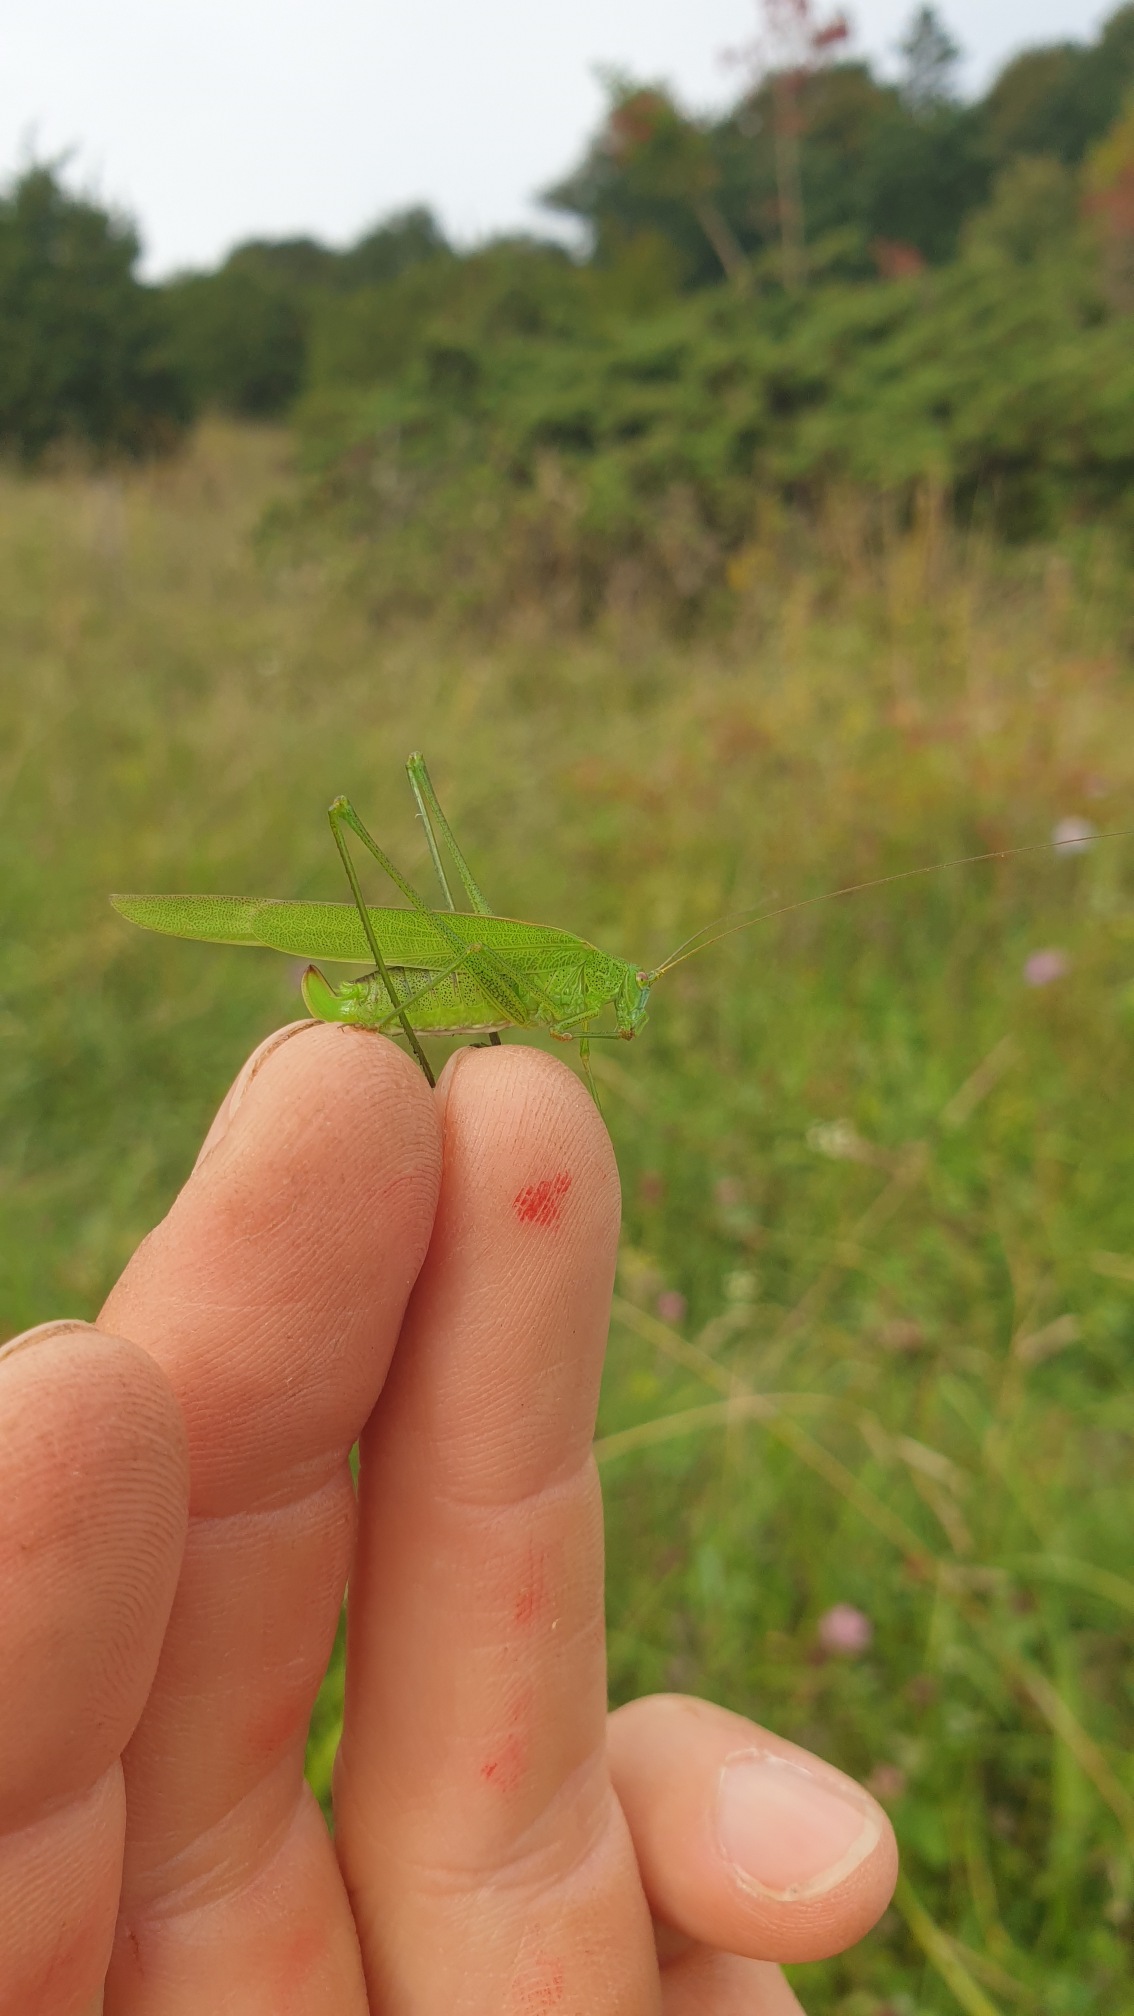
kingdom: Animalia
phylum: Arthropoda
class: Insecta
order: Orthoptera
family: Tettigoniidae
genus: Phaneroptera
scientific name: Phaneroptera falcata
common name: Seglgræshoppe
